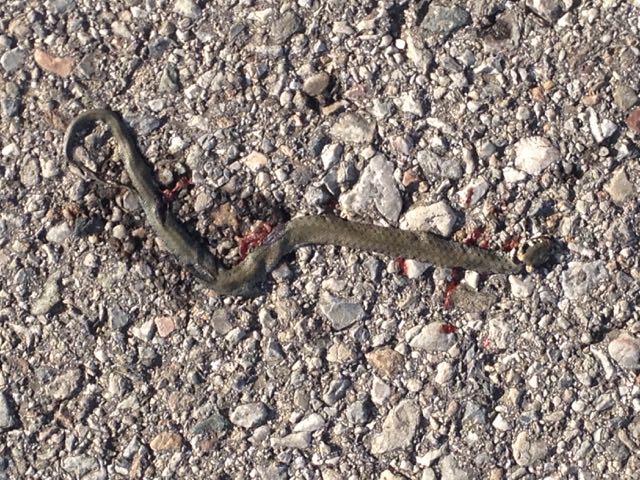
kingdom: Animalia
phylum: Chordata
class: Squamata
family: Colubridae
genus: Natrix
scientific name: Natrix natrix
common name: Grass snake
